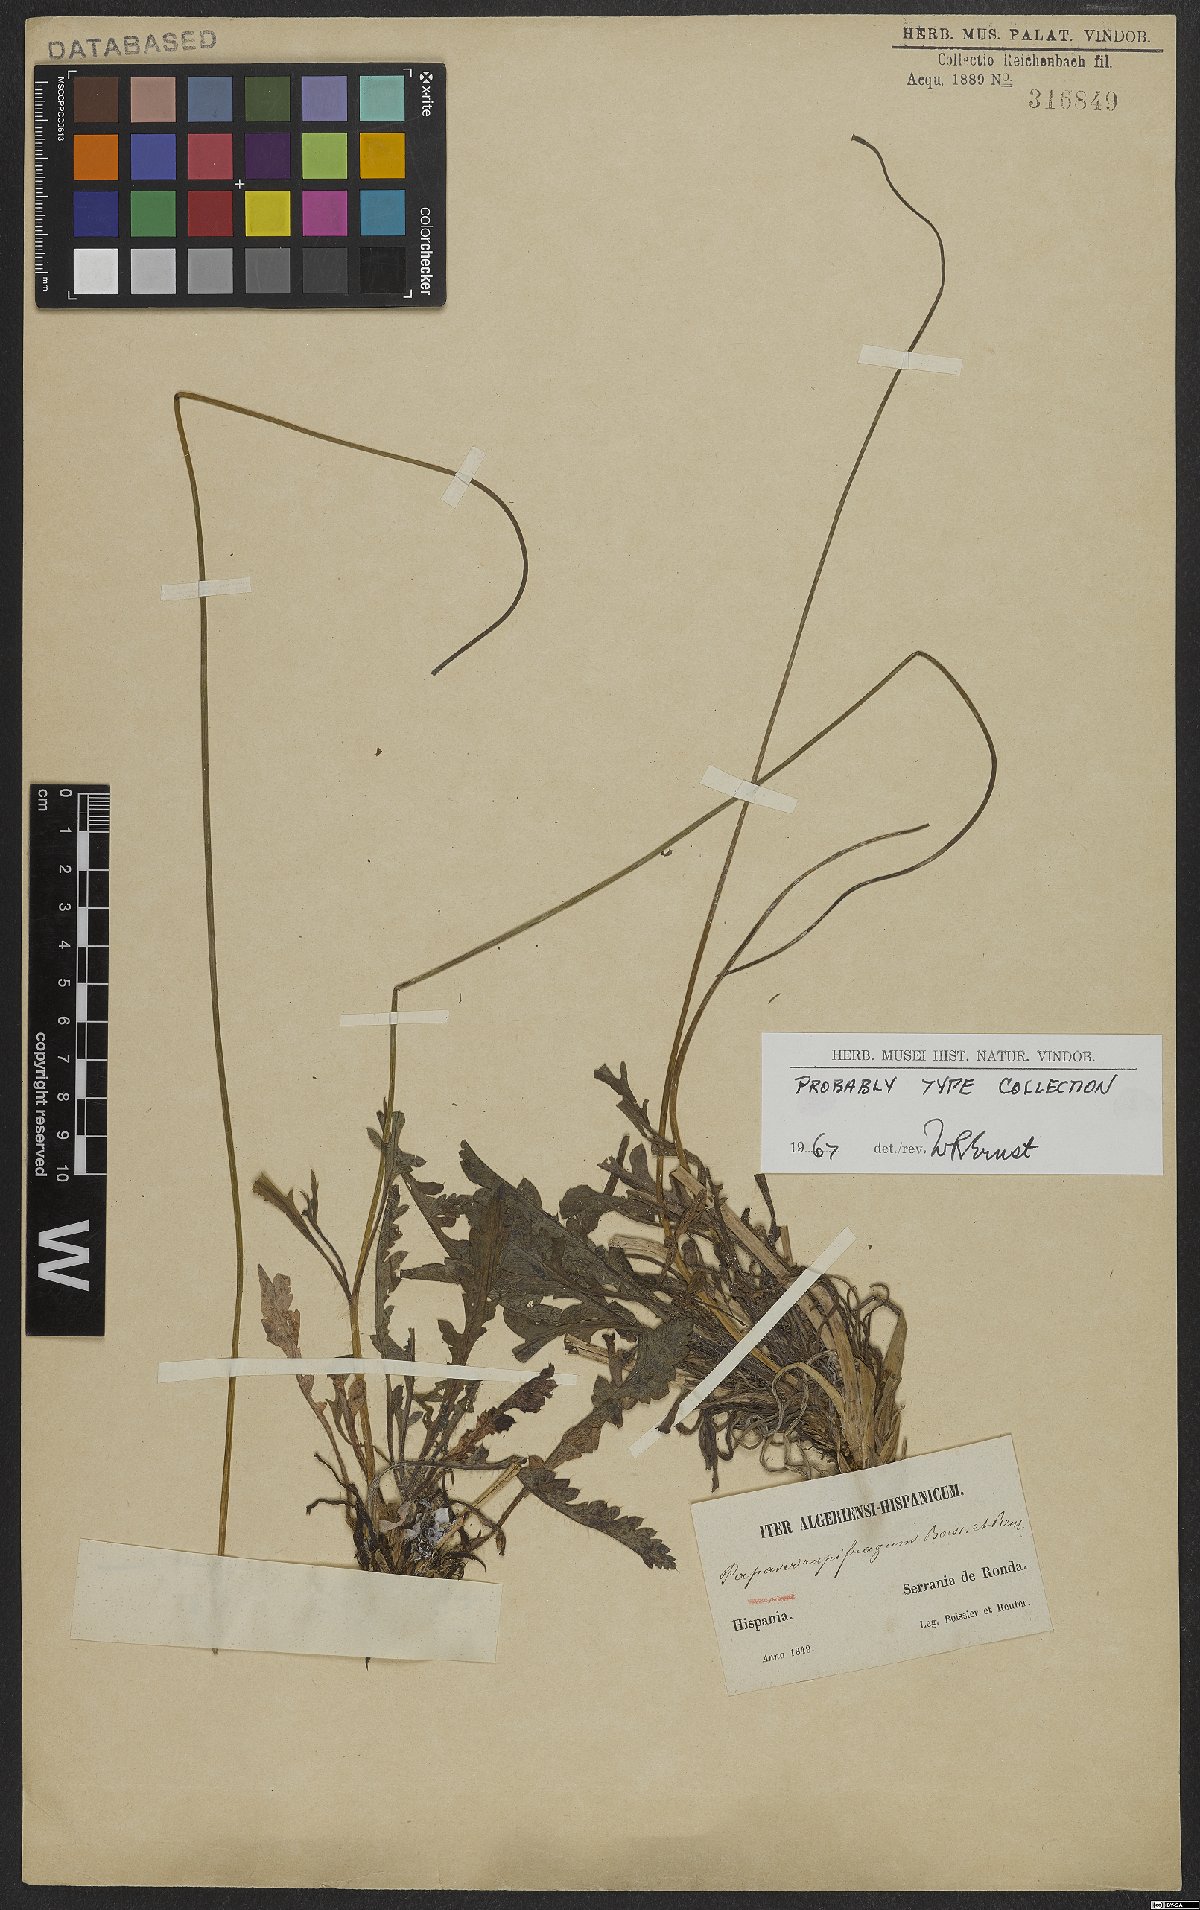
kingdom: Plantae
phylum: Tracheophyta
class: Magnoliopsida
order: Ranunculales
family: Papaveraceae
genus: Papaver
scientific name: Papaver rupifragum
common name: Spanish poppy
